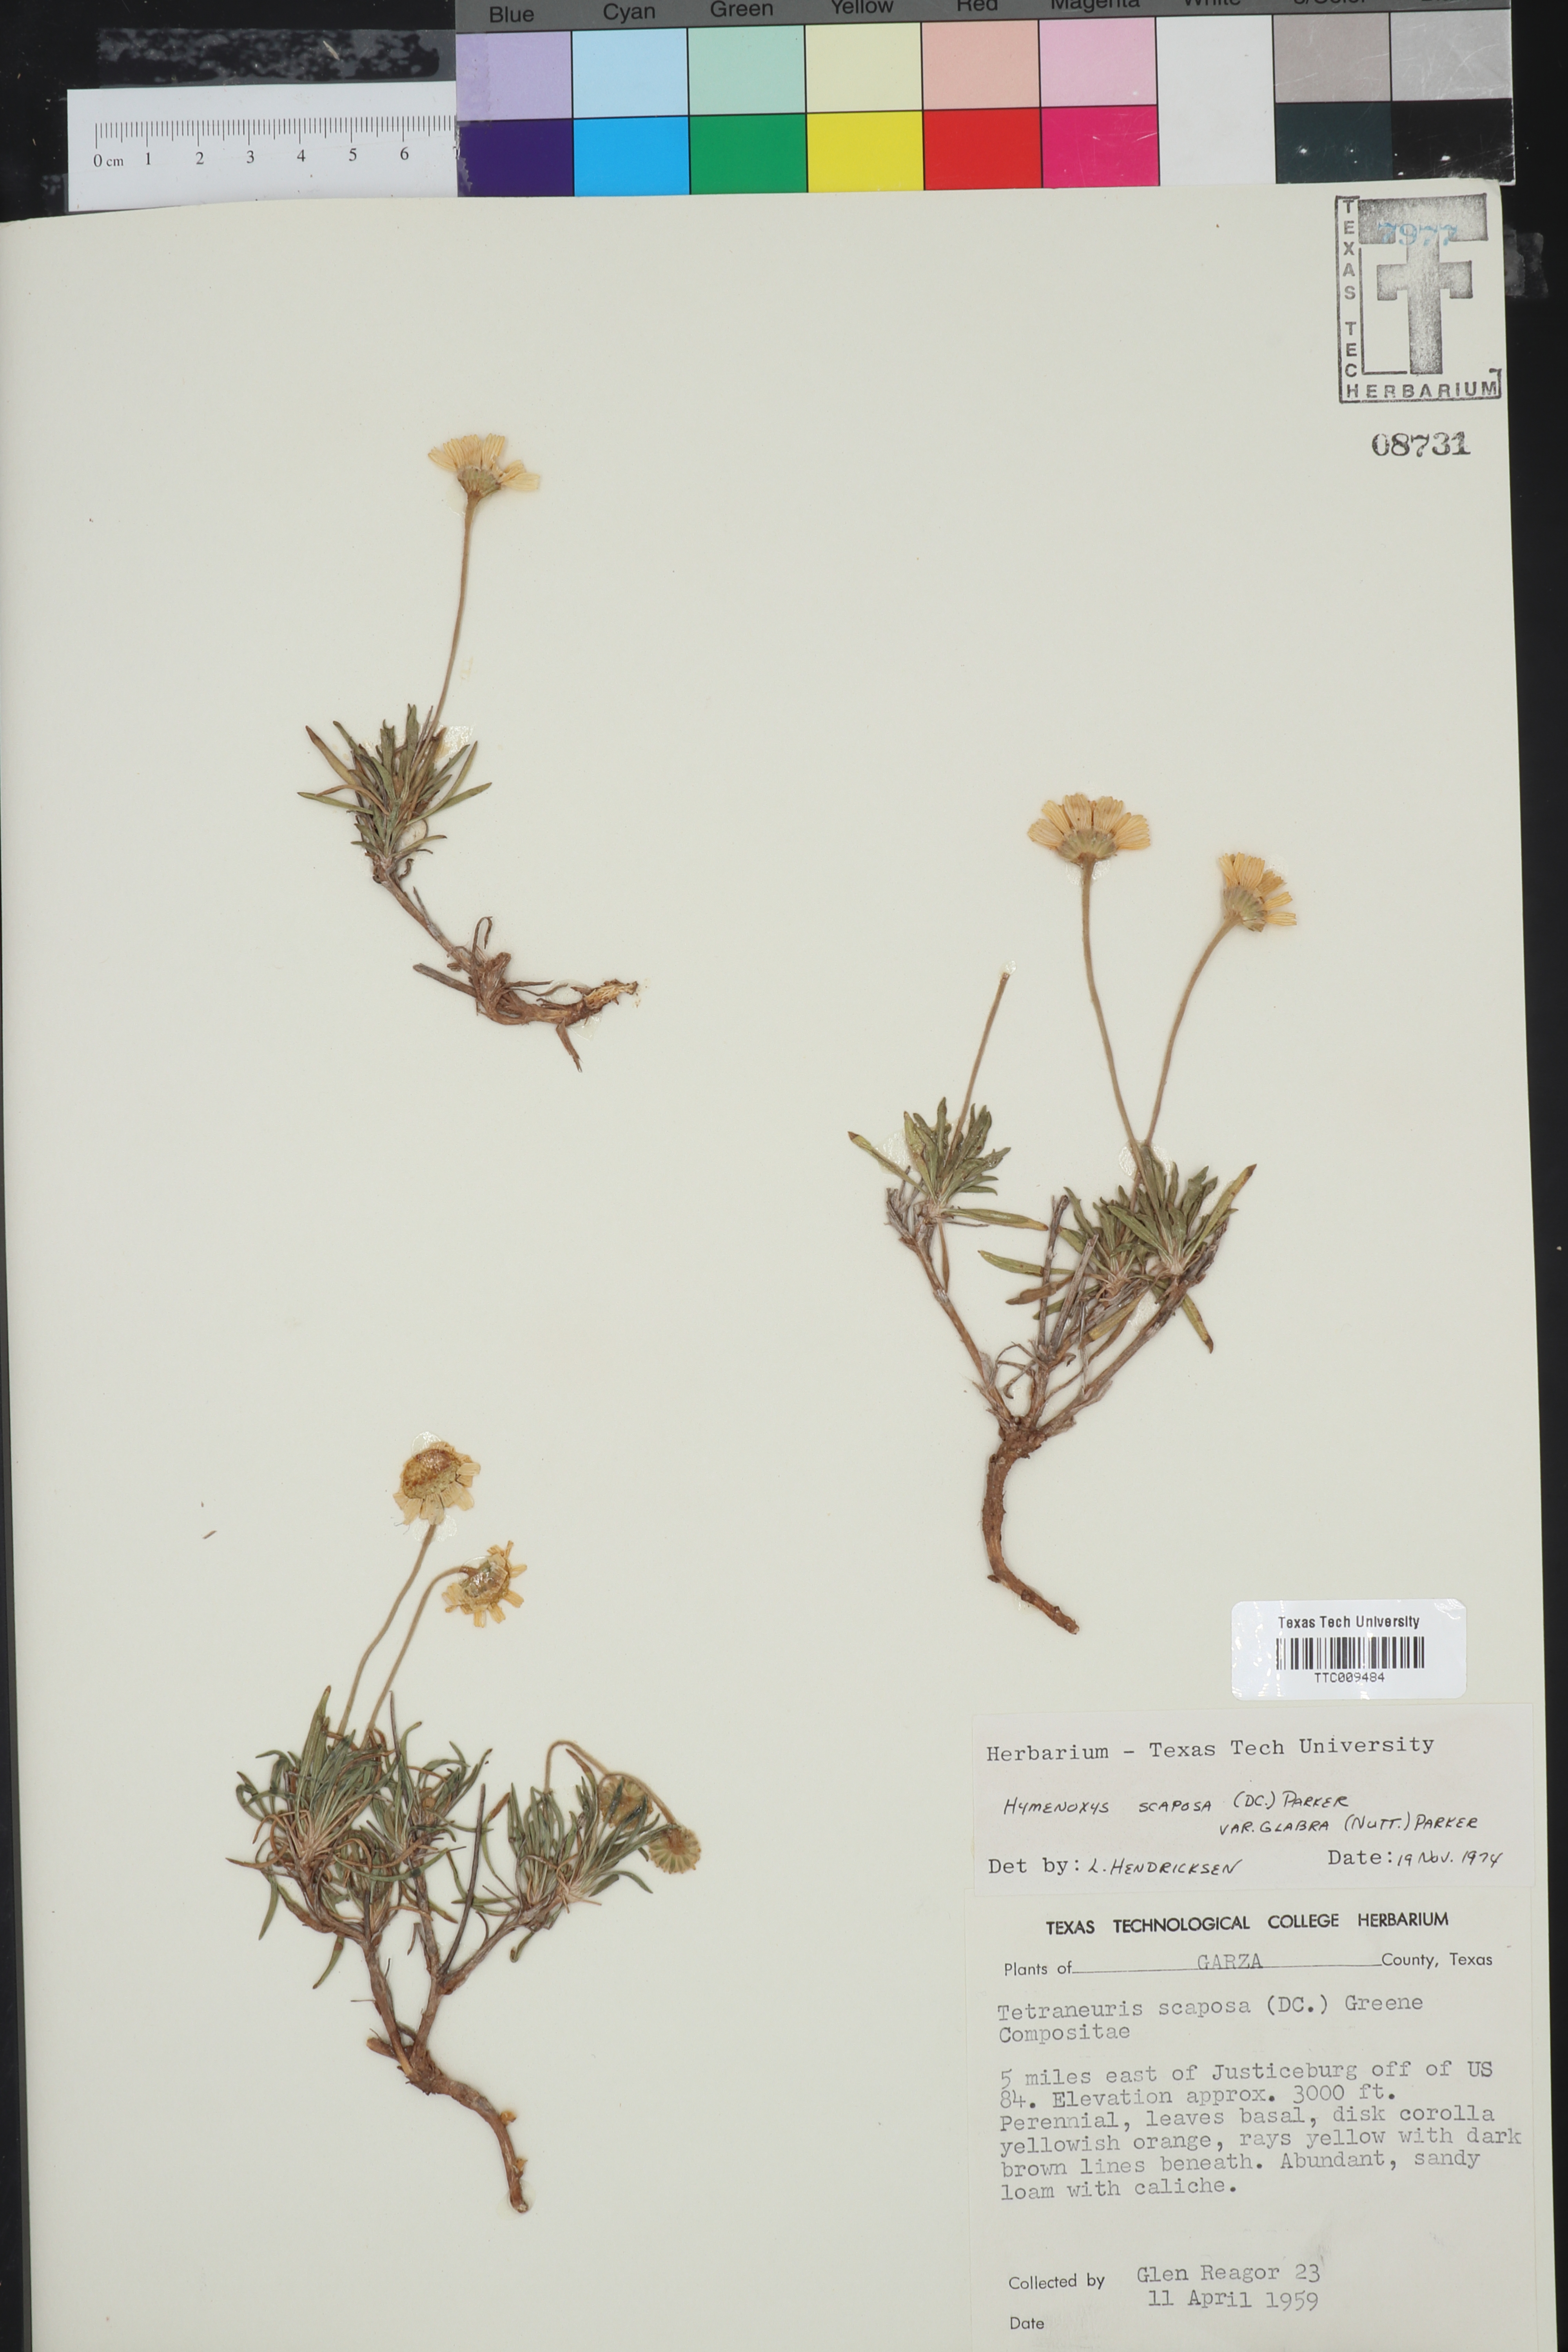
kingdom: Plantae
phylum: Tracheophyta
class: Magnoliopsida
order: Asterales
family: Asteraceae
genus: Tetraneuris
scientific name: Tetraneuris scaposa
